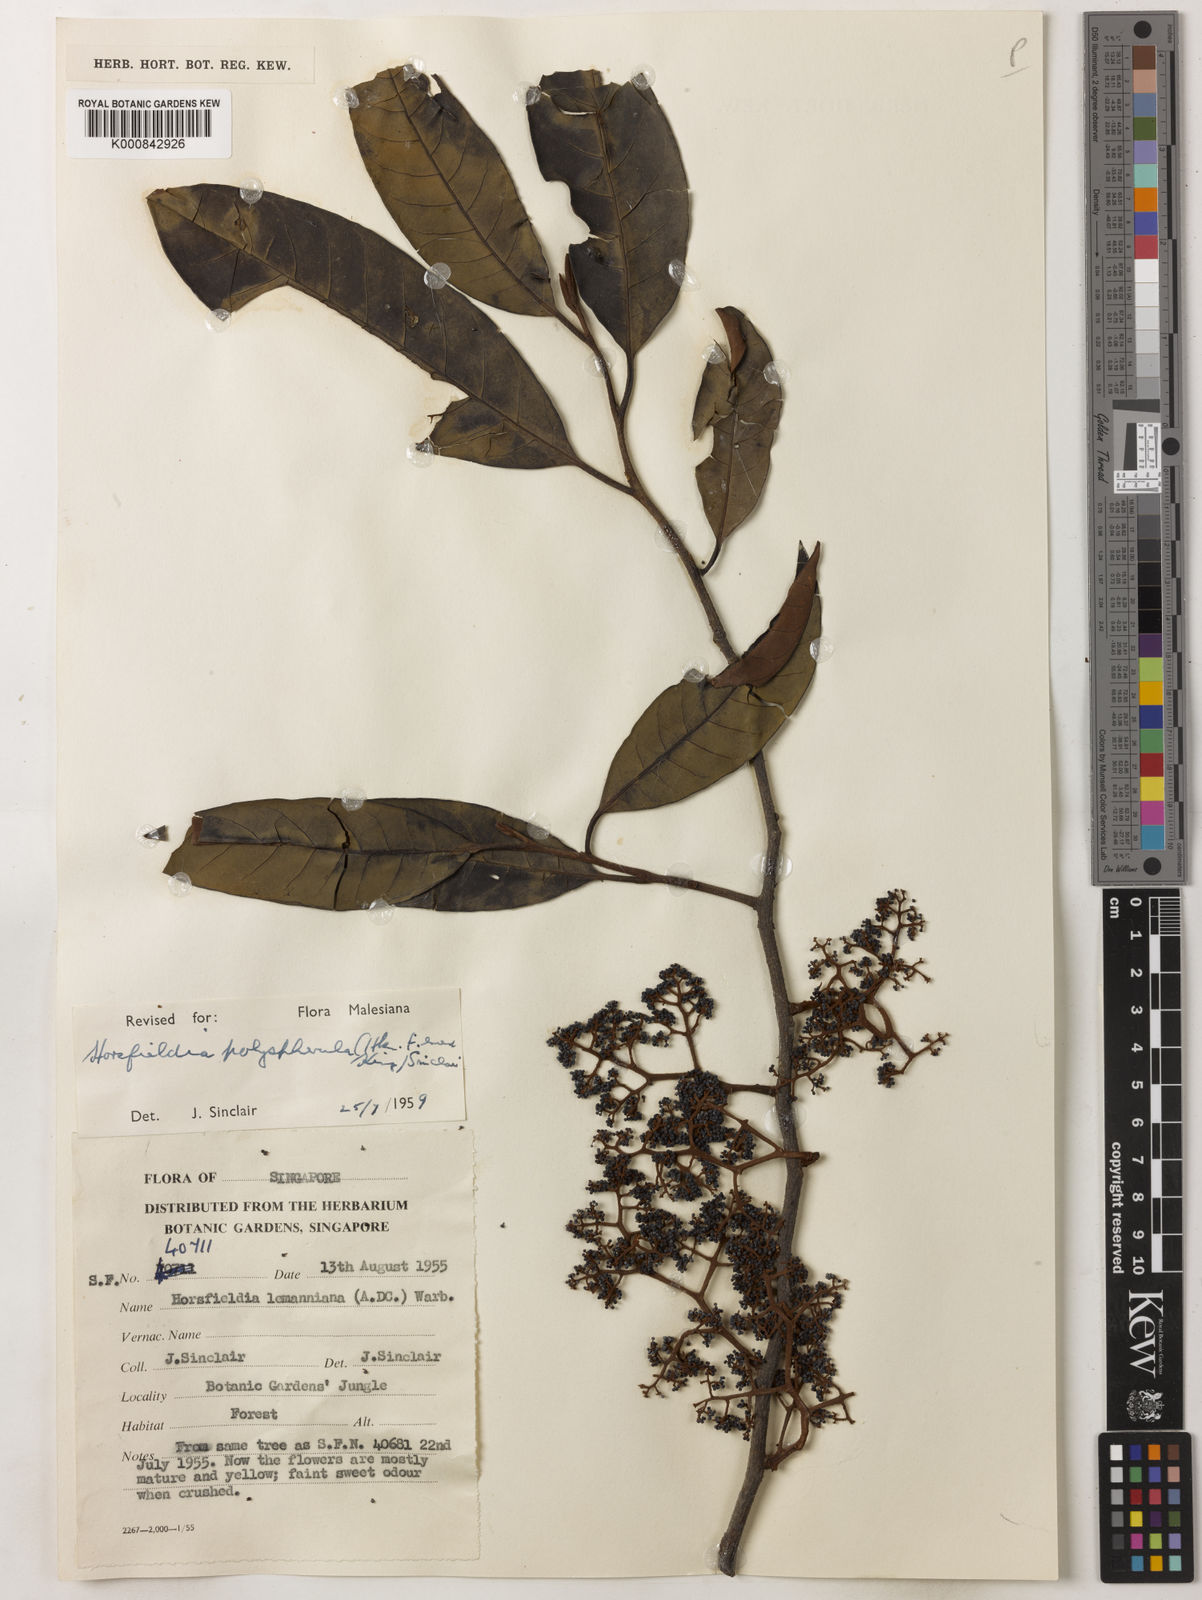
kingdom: Plantae
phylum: Tracheophyta
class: Magnoliopsida
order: Magnoliales
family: Myristicaceae
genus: Horsfieldia
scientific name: Horsfieldia polyspherula
